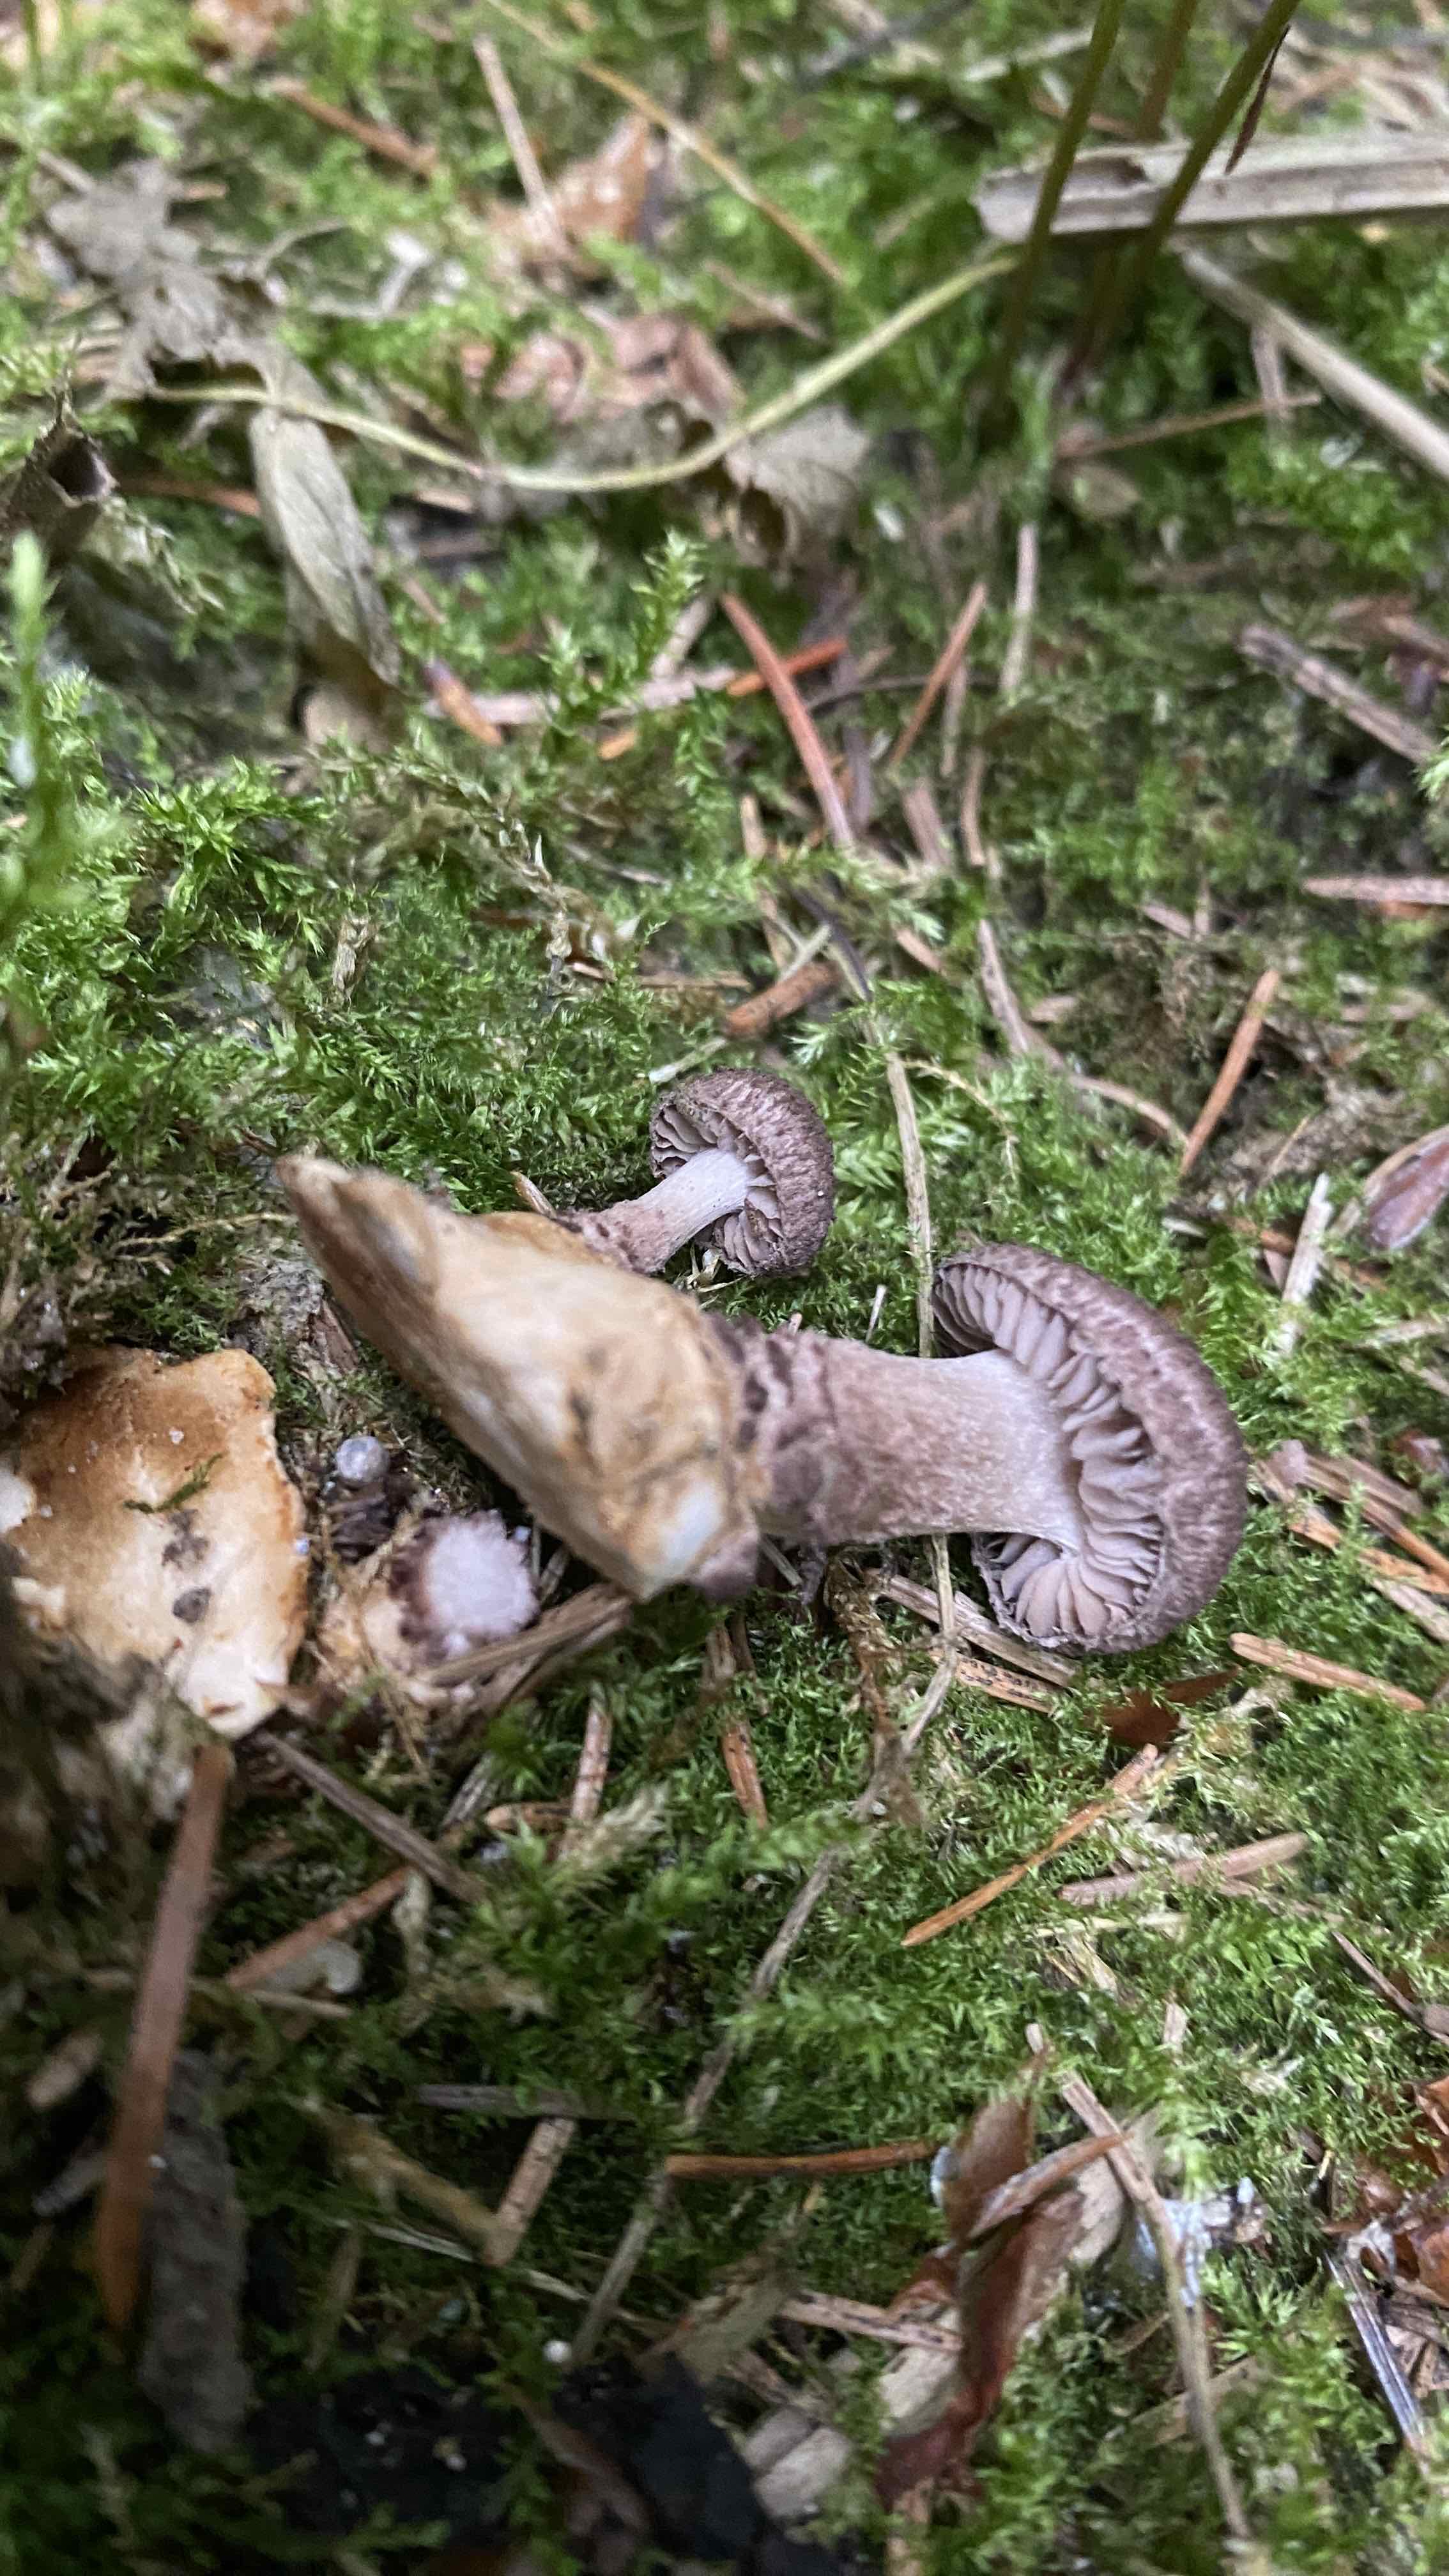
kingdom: Fungi
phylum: Basidiomycota
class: Agaricomycetes
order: Agaricales
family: Squamanitaceae
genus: Dissoderma
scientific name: Dissoderma odoratum
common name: vellugtende knoldfod
